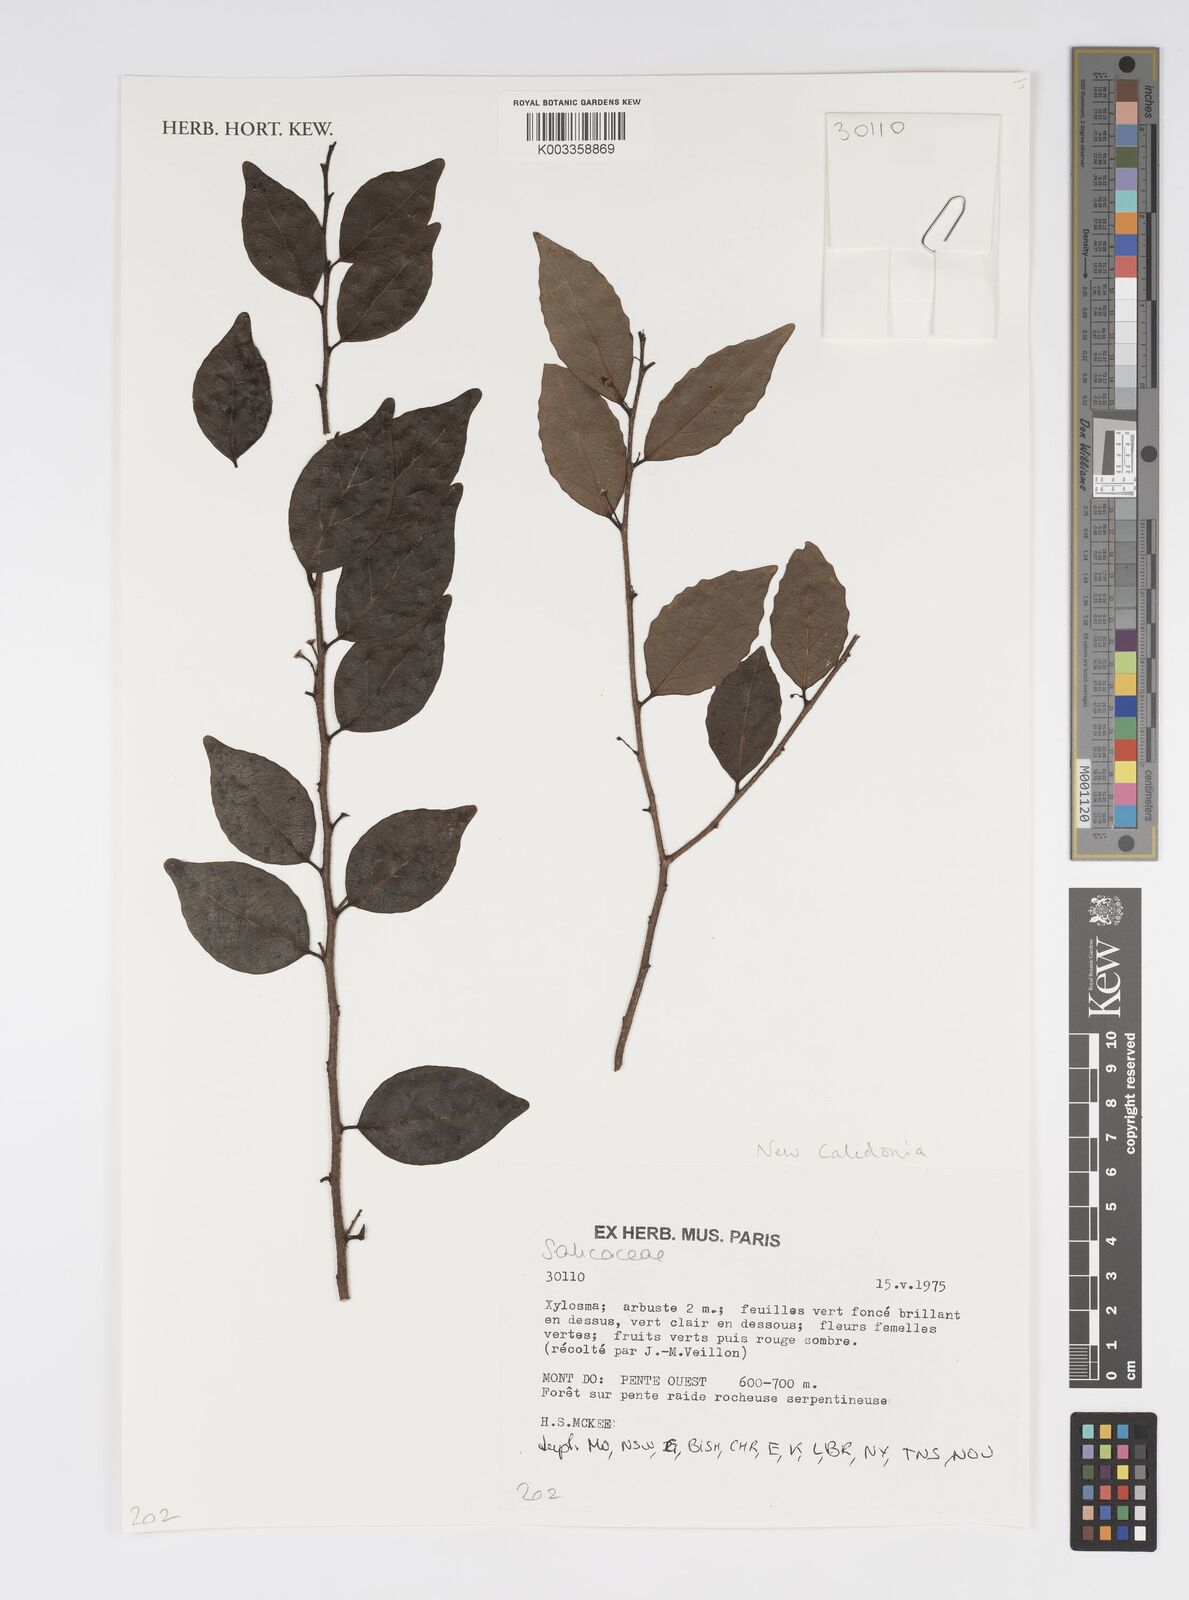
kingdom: Plantae
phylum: Tracheophyta
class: Magnoliopsida
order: Malpighiales
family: Salicaceae
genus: Xylosma
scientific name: Xylosma
